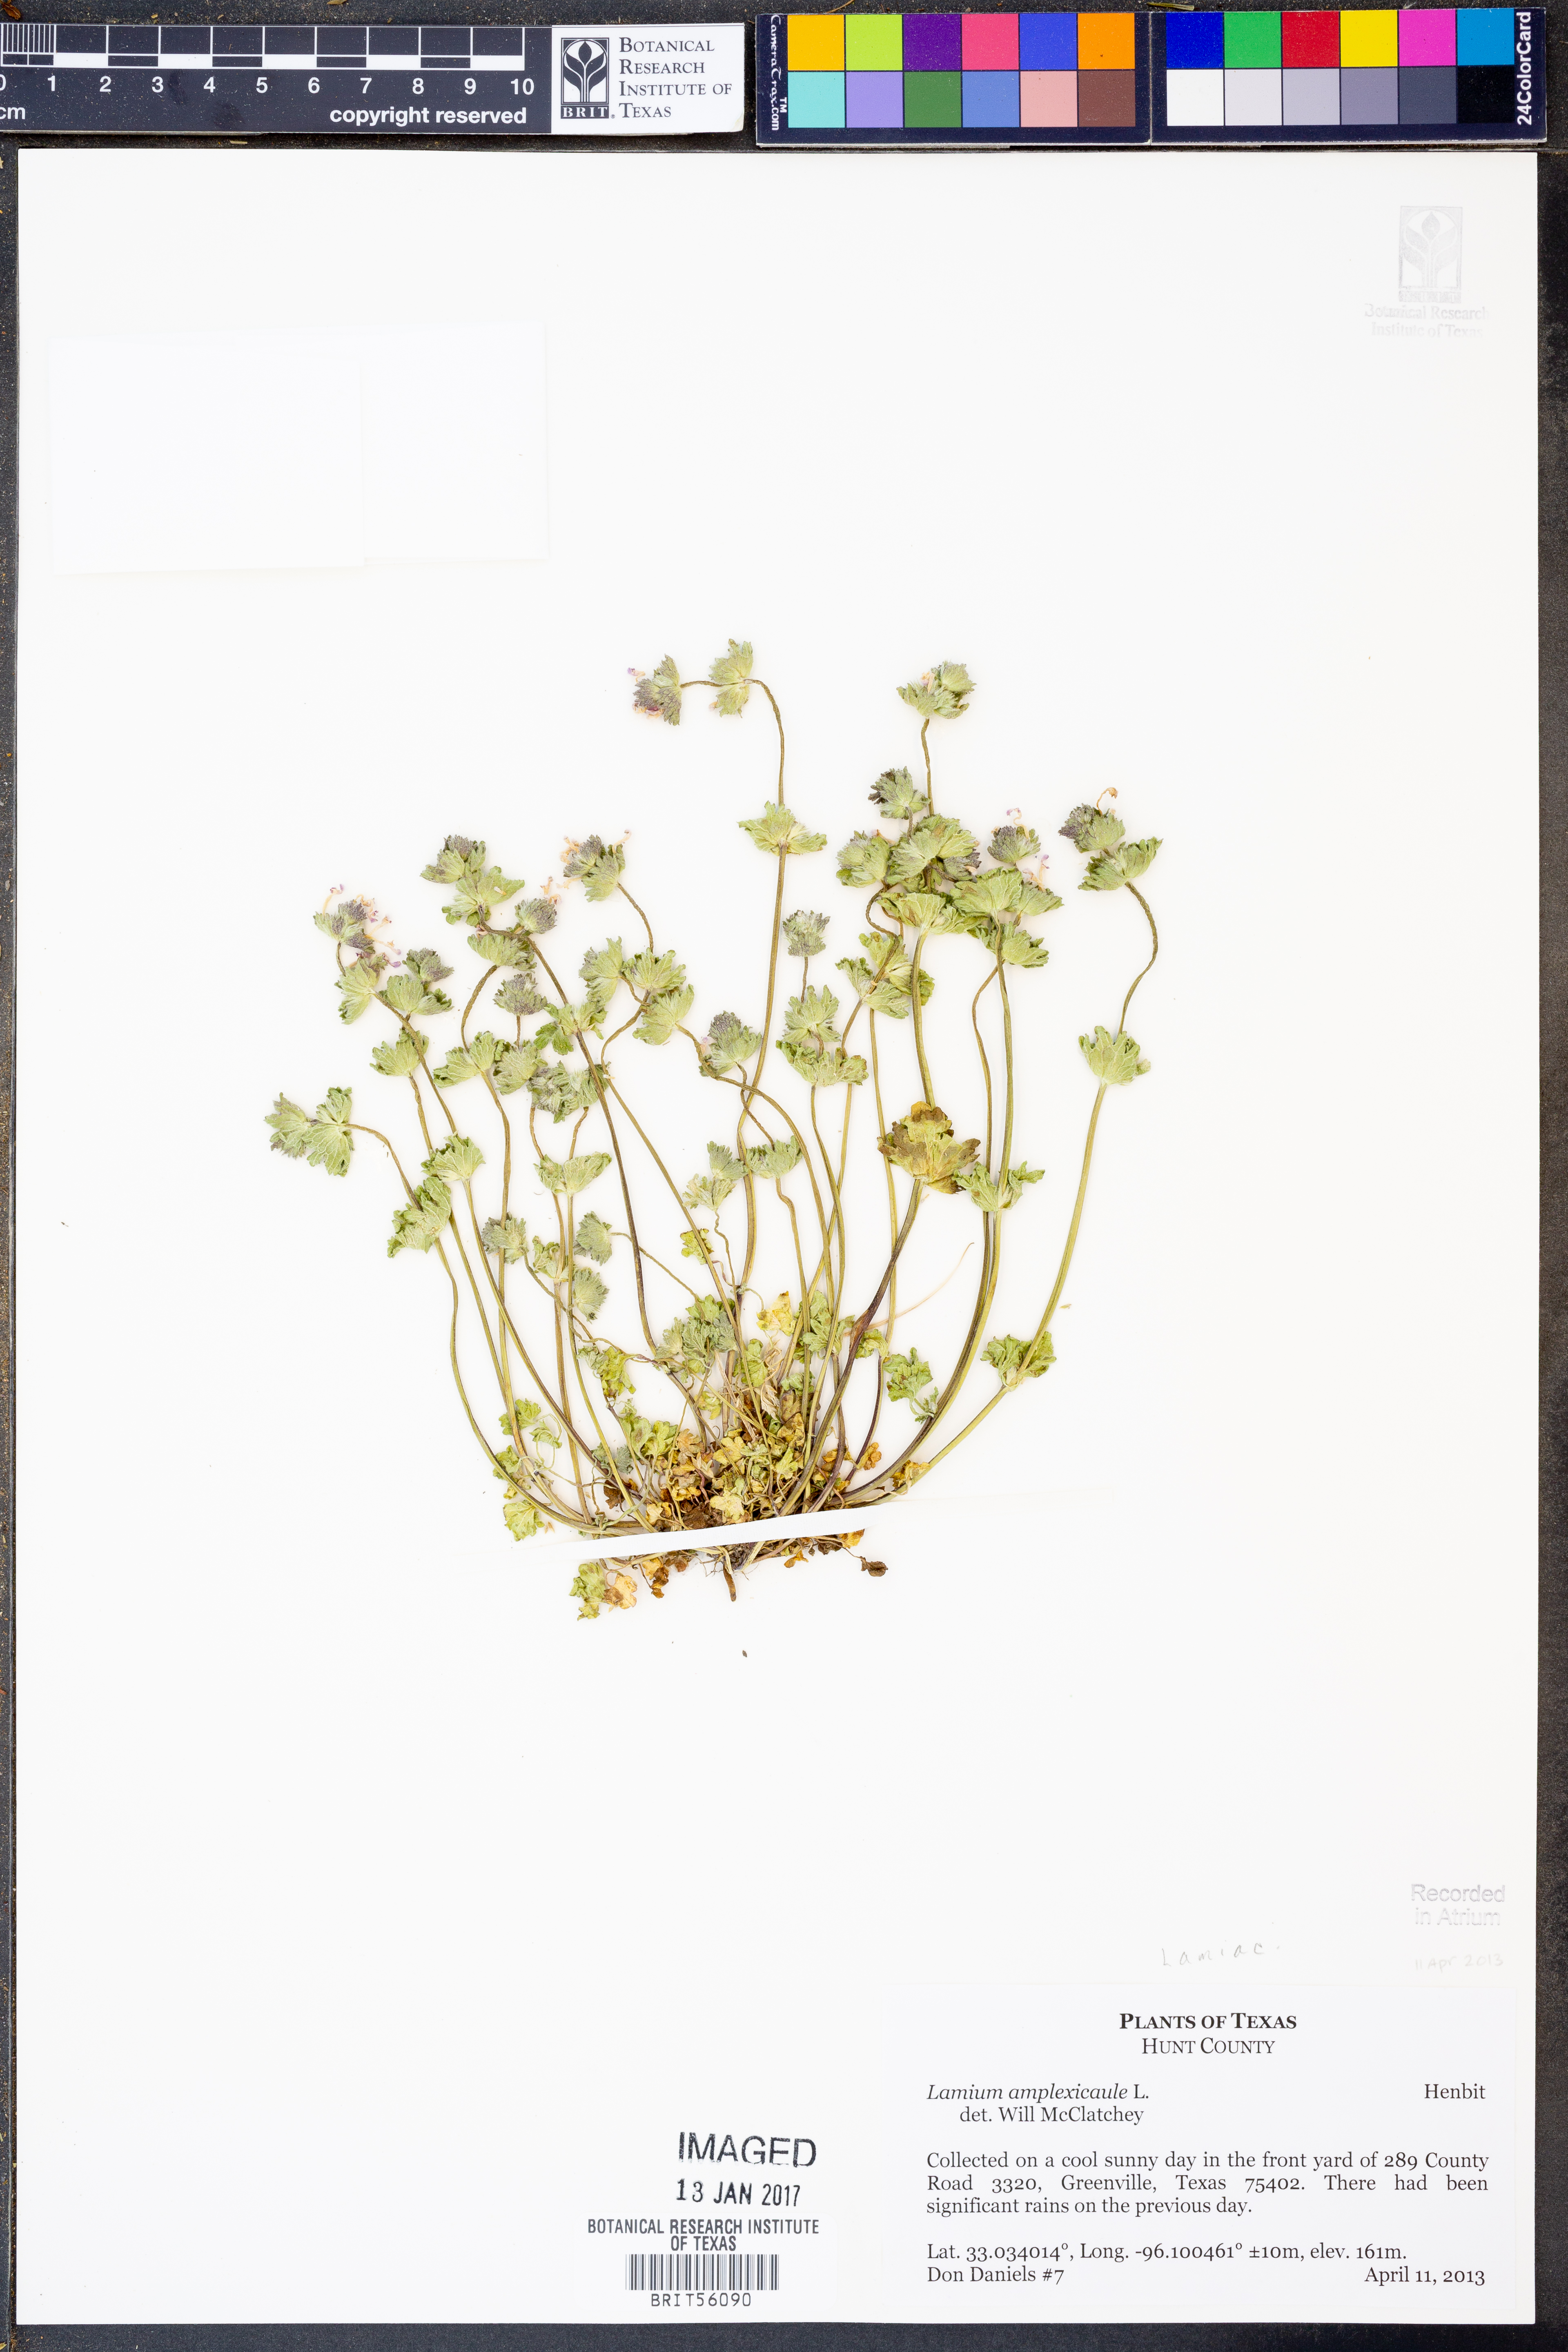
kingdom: Plantae
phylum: Tracheophyta
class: Magnoliopsida
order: Lamiales
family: Lamiaceae
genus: Lamium
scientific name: Lamium amplexicaule
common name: Henbit dead-nettle
